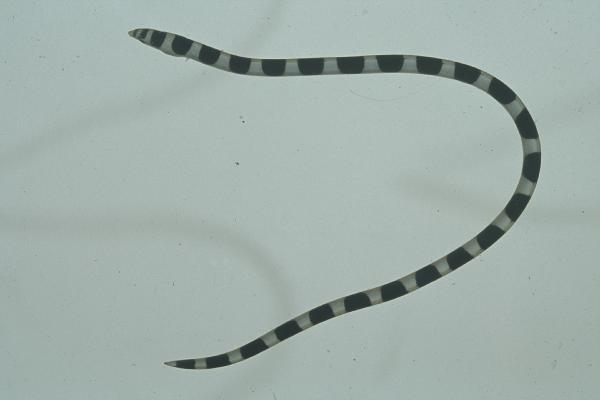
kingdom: Animalia
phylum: Chordata
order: Anguilliformes
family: Ophichthidae
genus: Leiuranus
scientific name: Leiuranus semicinctus
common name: Saddled snake eel
